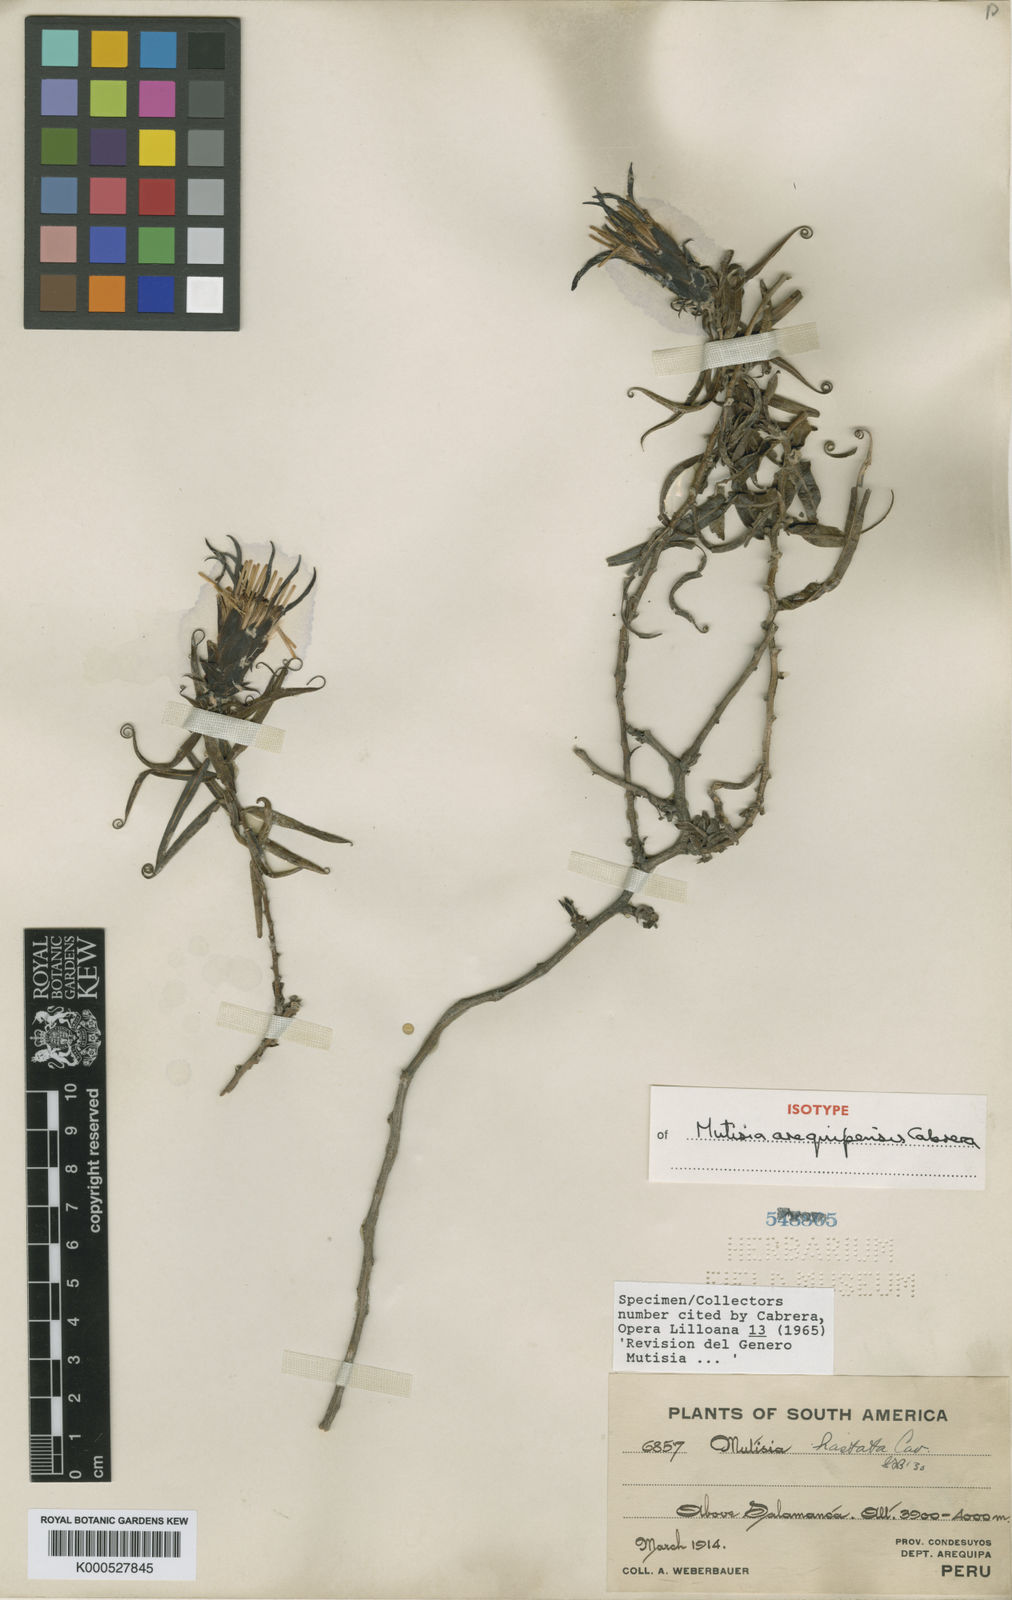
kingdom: Plantae
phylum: Tracheophyta
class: Magnoliopsida
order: Asterales
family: Asteraceae
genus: Mutisia
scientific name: Mutisia arequipensis
